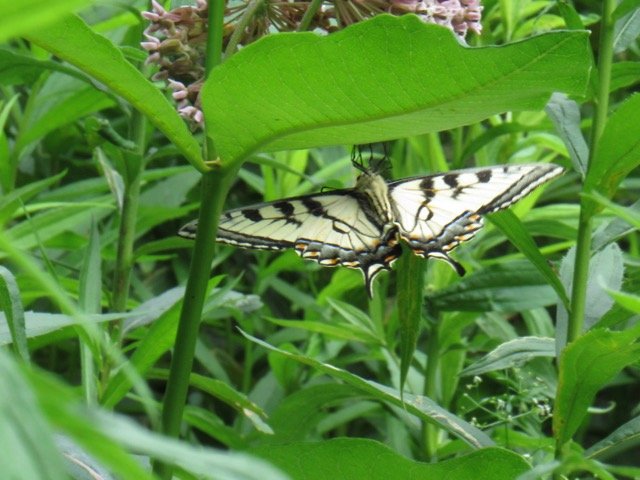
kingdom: Animalia
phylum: Arthropoda
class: Insecta
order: Lepidoptera
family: Papilionidae
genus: Pterourus
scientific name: Pterourus
